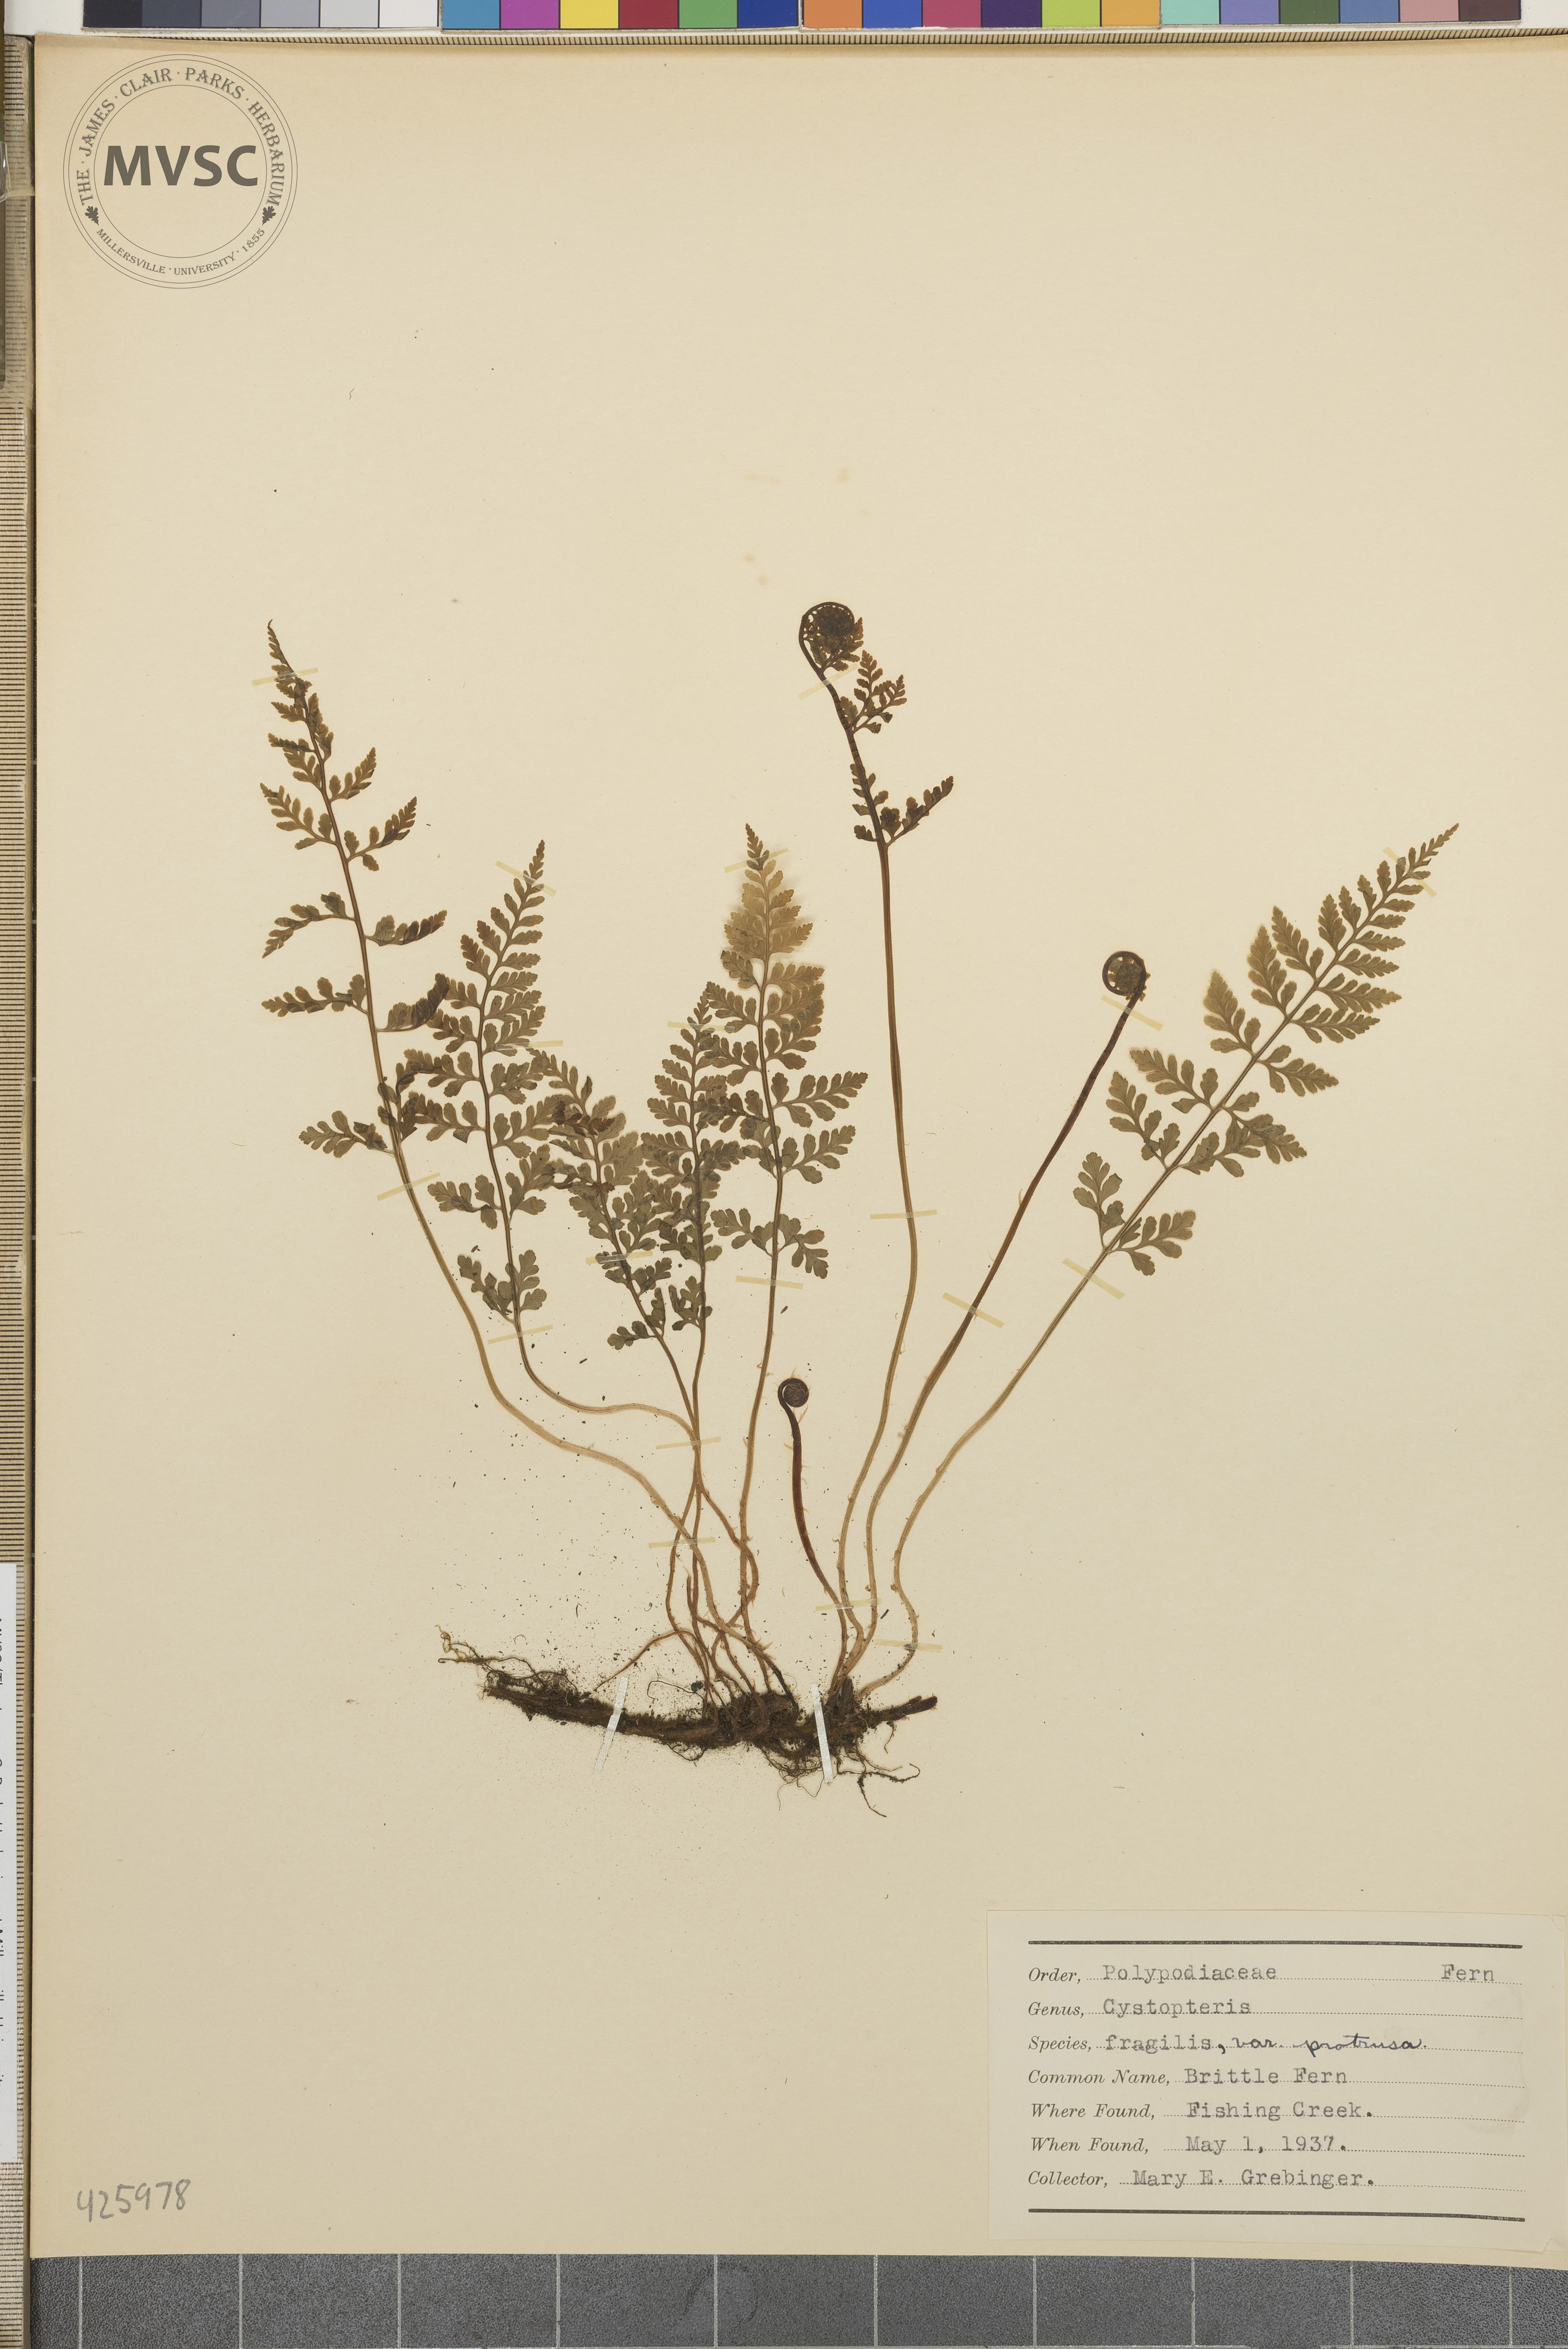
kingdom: Plantae
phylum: Tracheophyta
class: Polypodiopsida
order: Polypodiales
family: Cystopteridaceae
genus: Cystopteris
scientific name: Cystopteris fragilis
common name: Brittle fern
